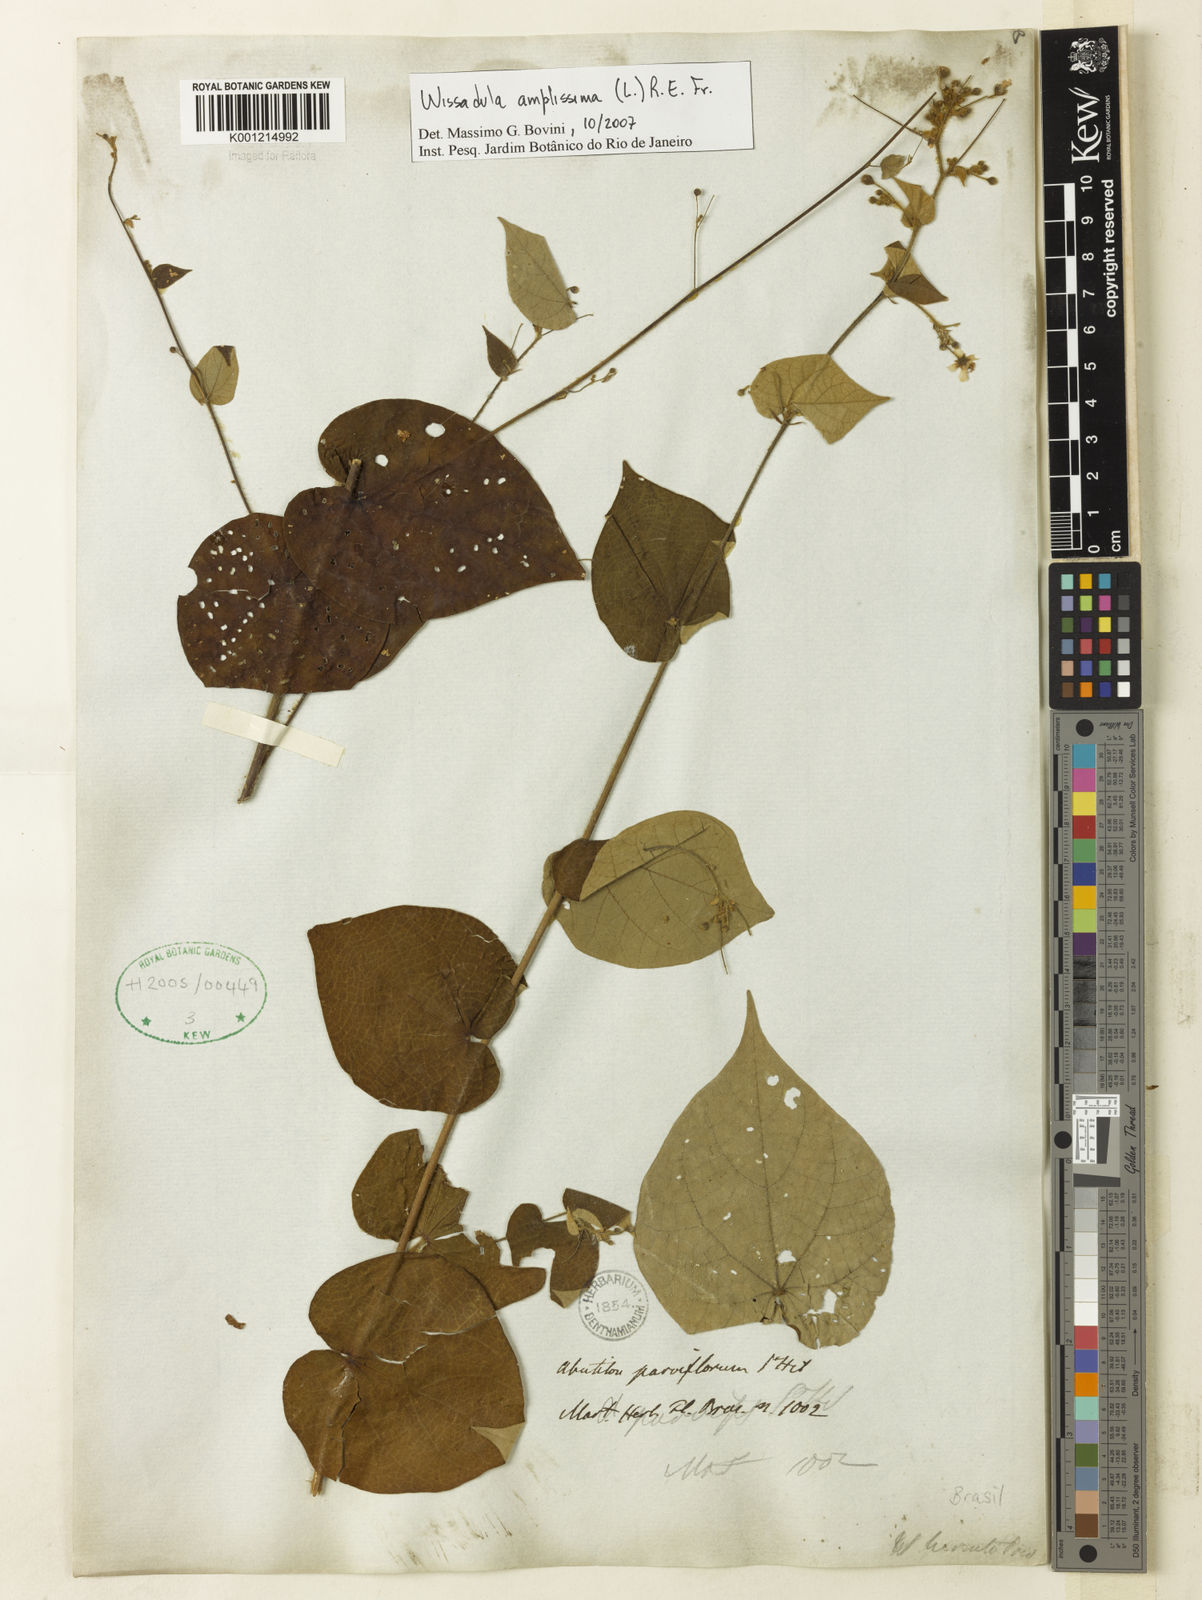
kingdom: Plantae
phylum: Tracheophyta
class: Magnoliopsida
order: Malvales
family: Malvaceae
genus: Wissadula
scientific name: Wissadula amplissima
